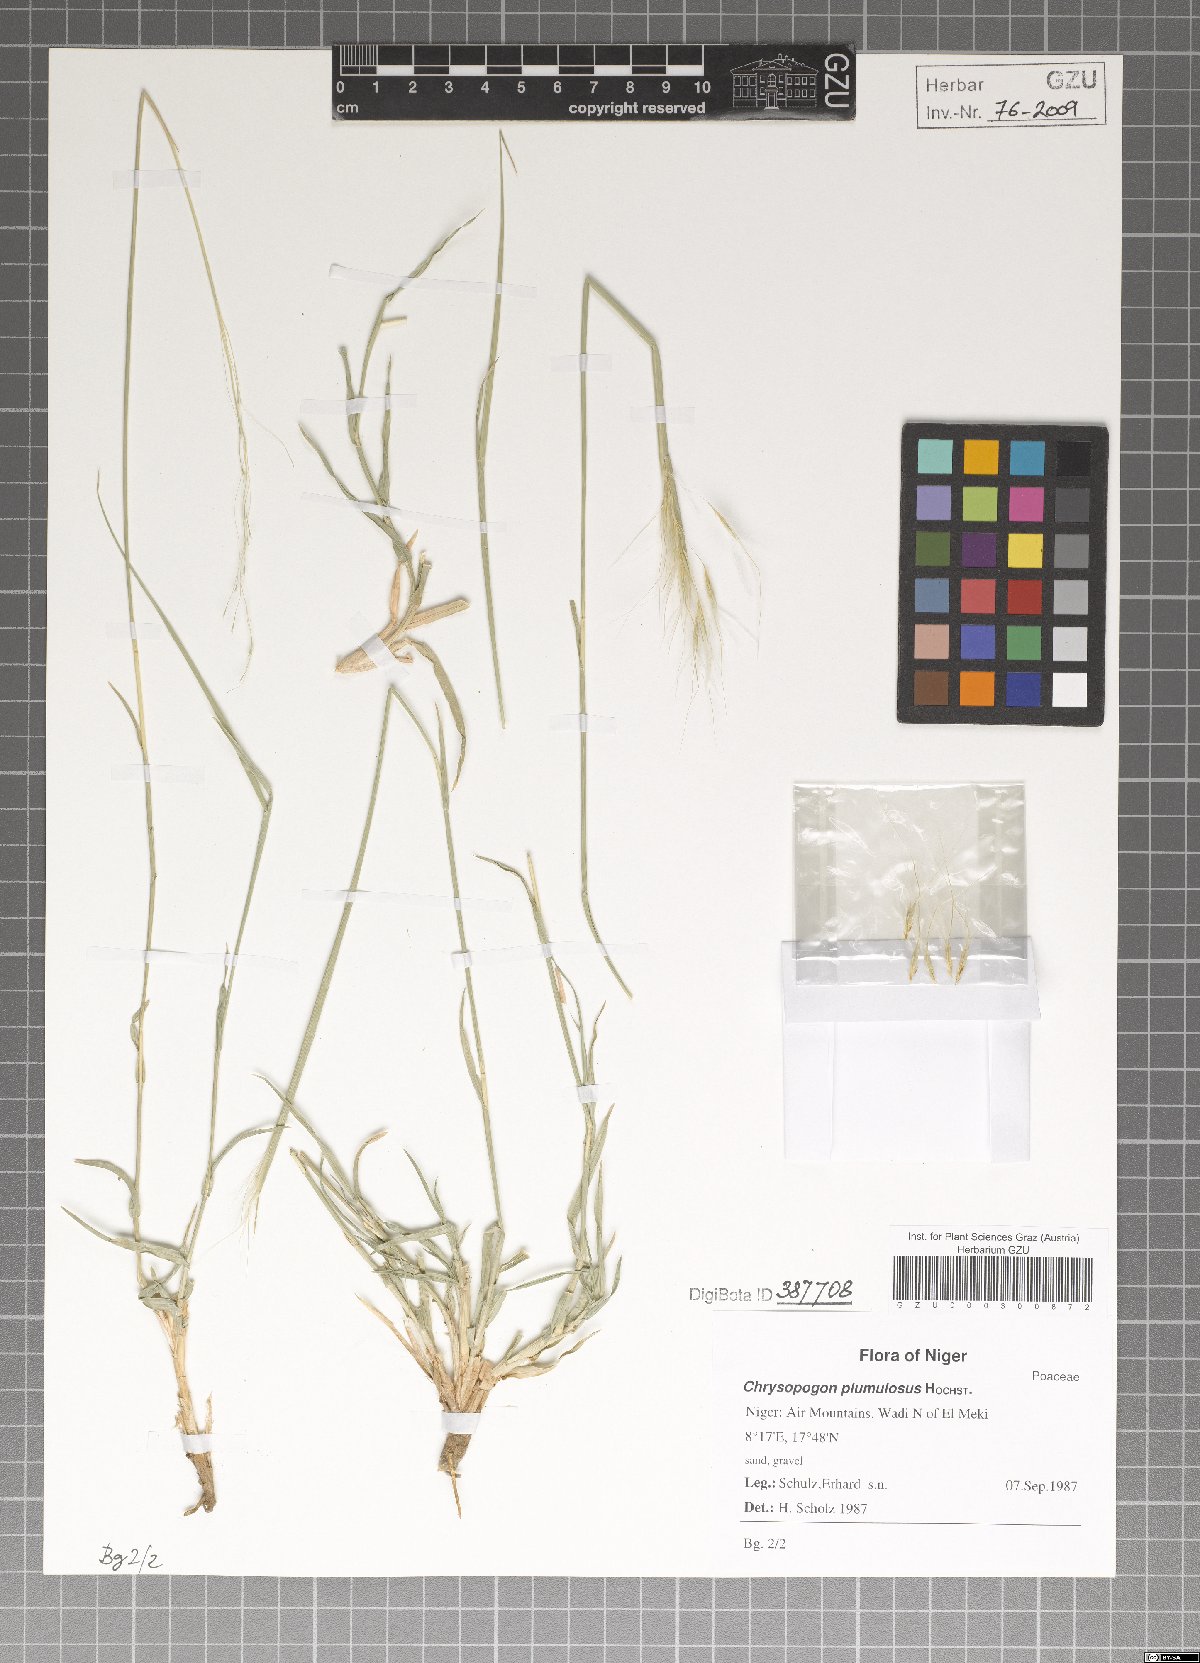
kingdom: Plantae
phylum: Tracheophyta
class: Liliopsida
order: Poales
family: Poaceae
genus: Chrysopogon
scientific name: Chrysopogon plumulosus
